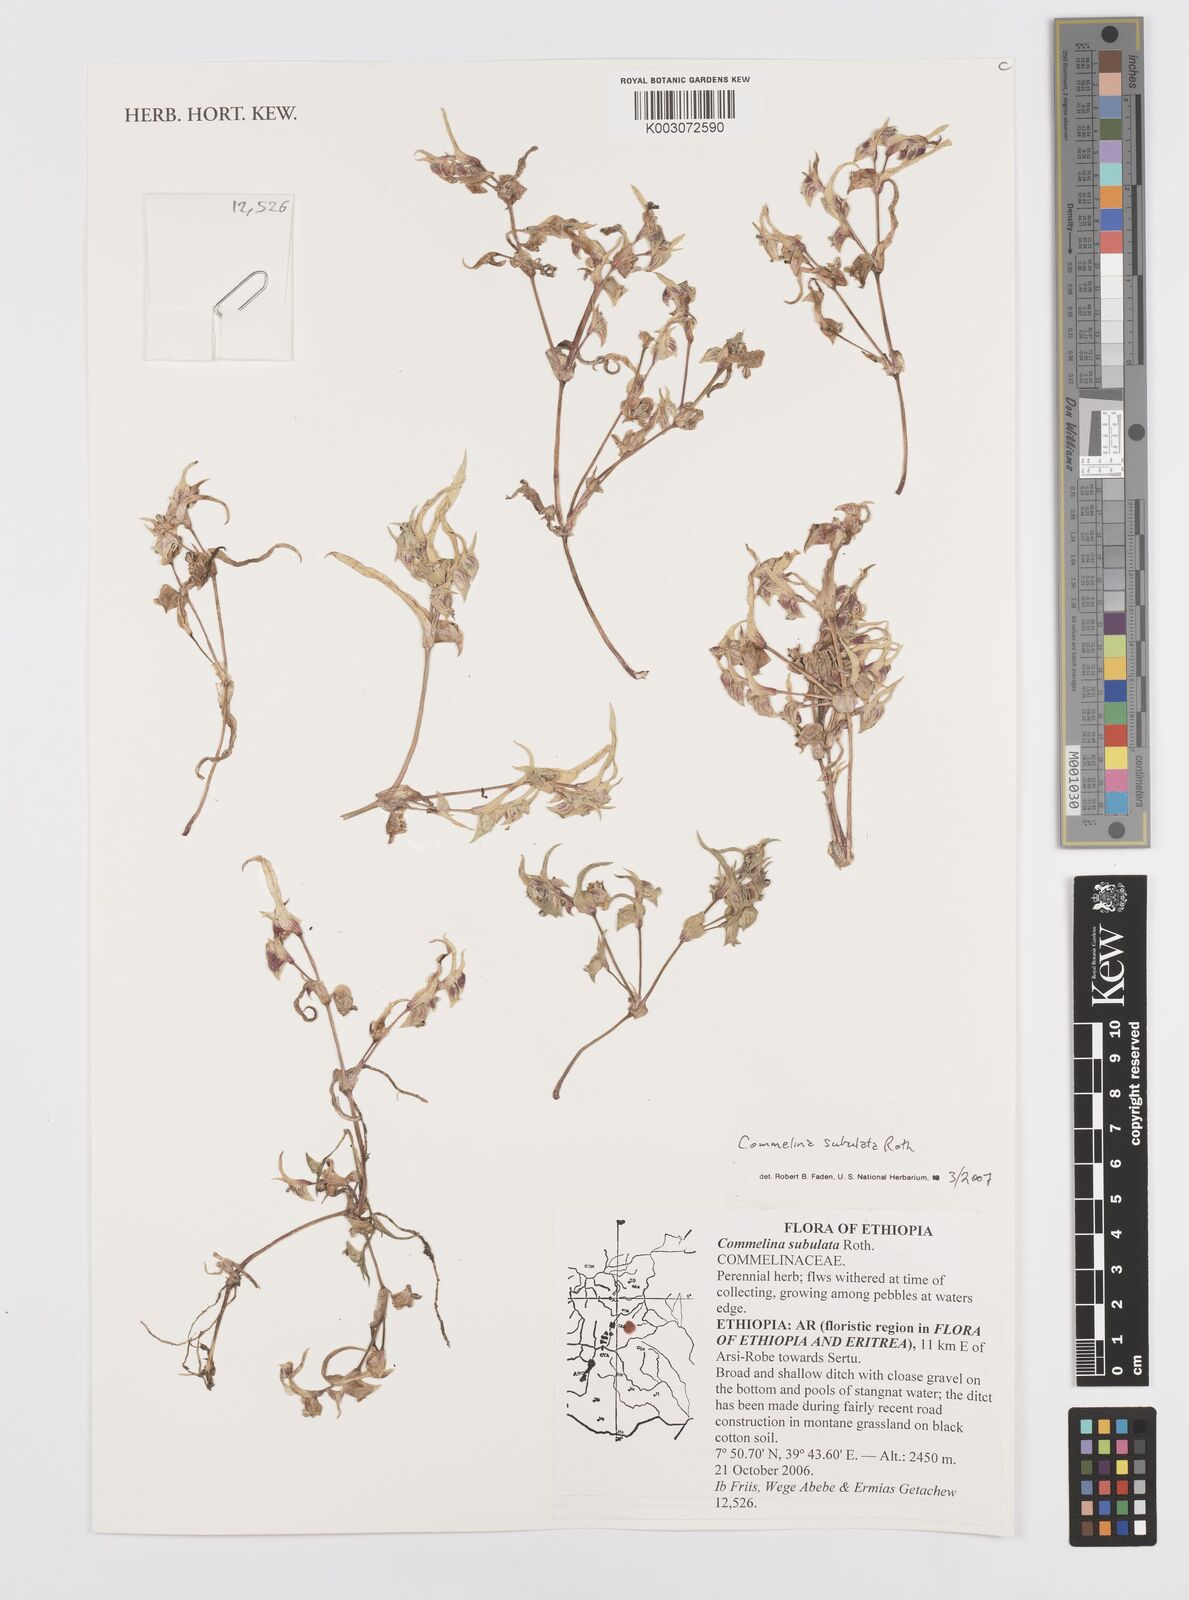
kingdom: Plantae
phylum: Tracheophyta
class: Liliopsida
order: Commelinales
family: Commelinaceae
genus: Commelina
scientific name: Commelina subulata
